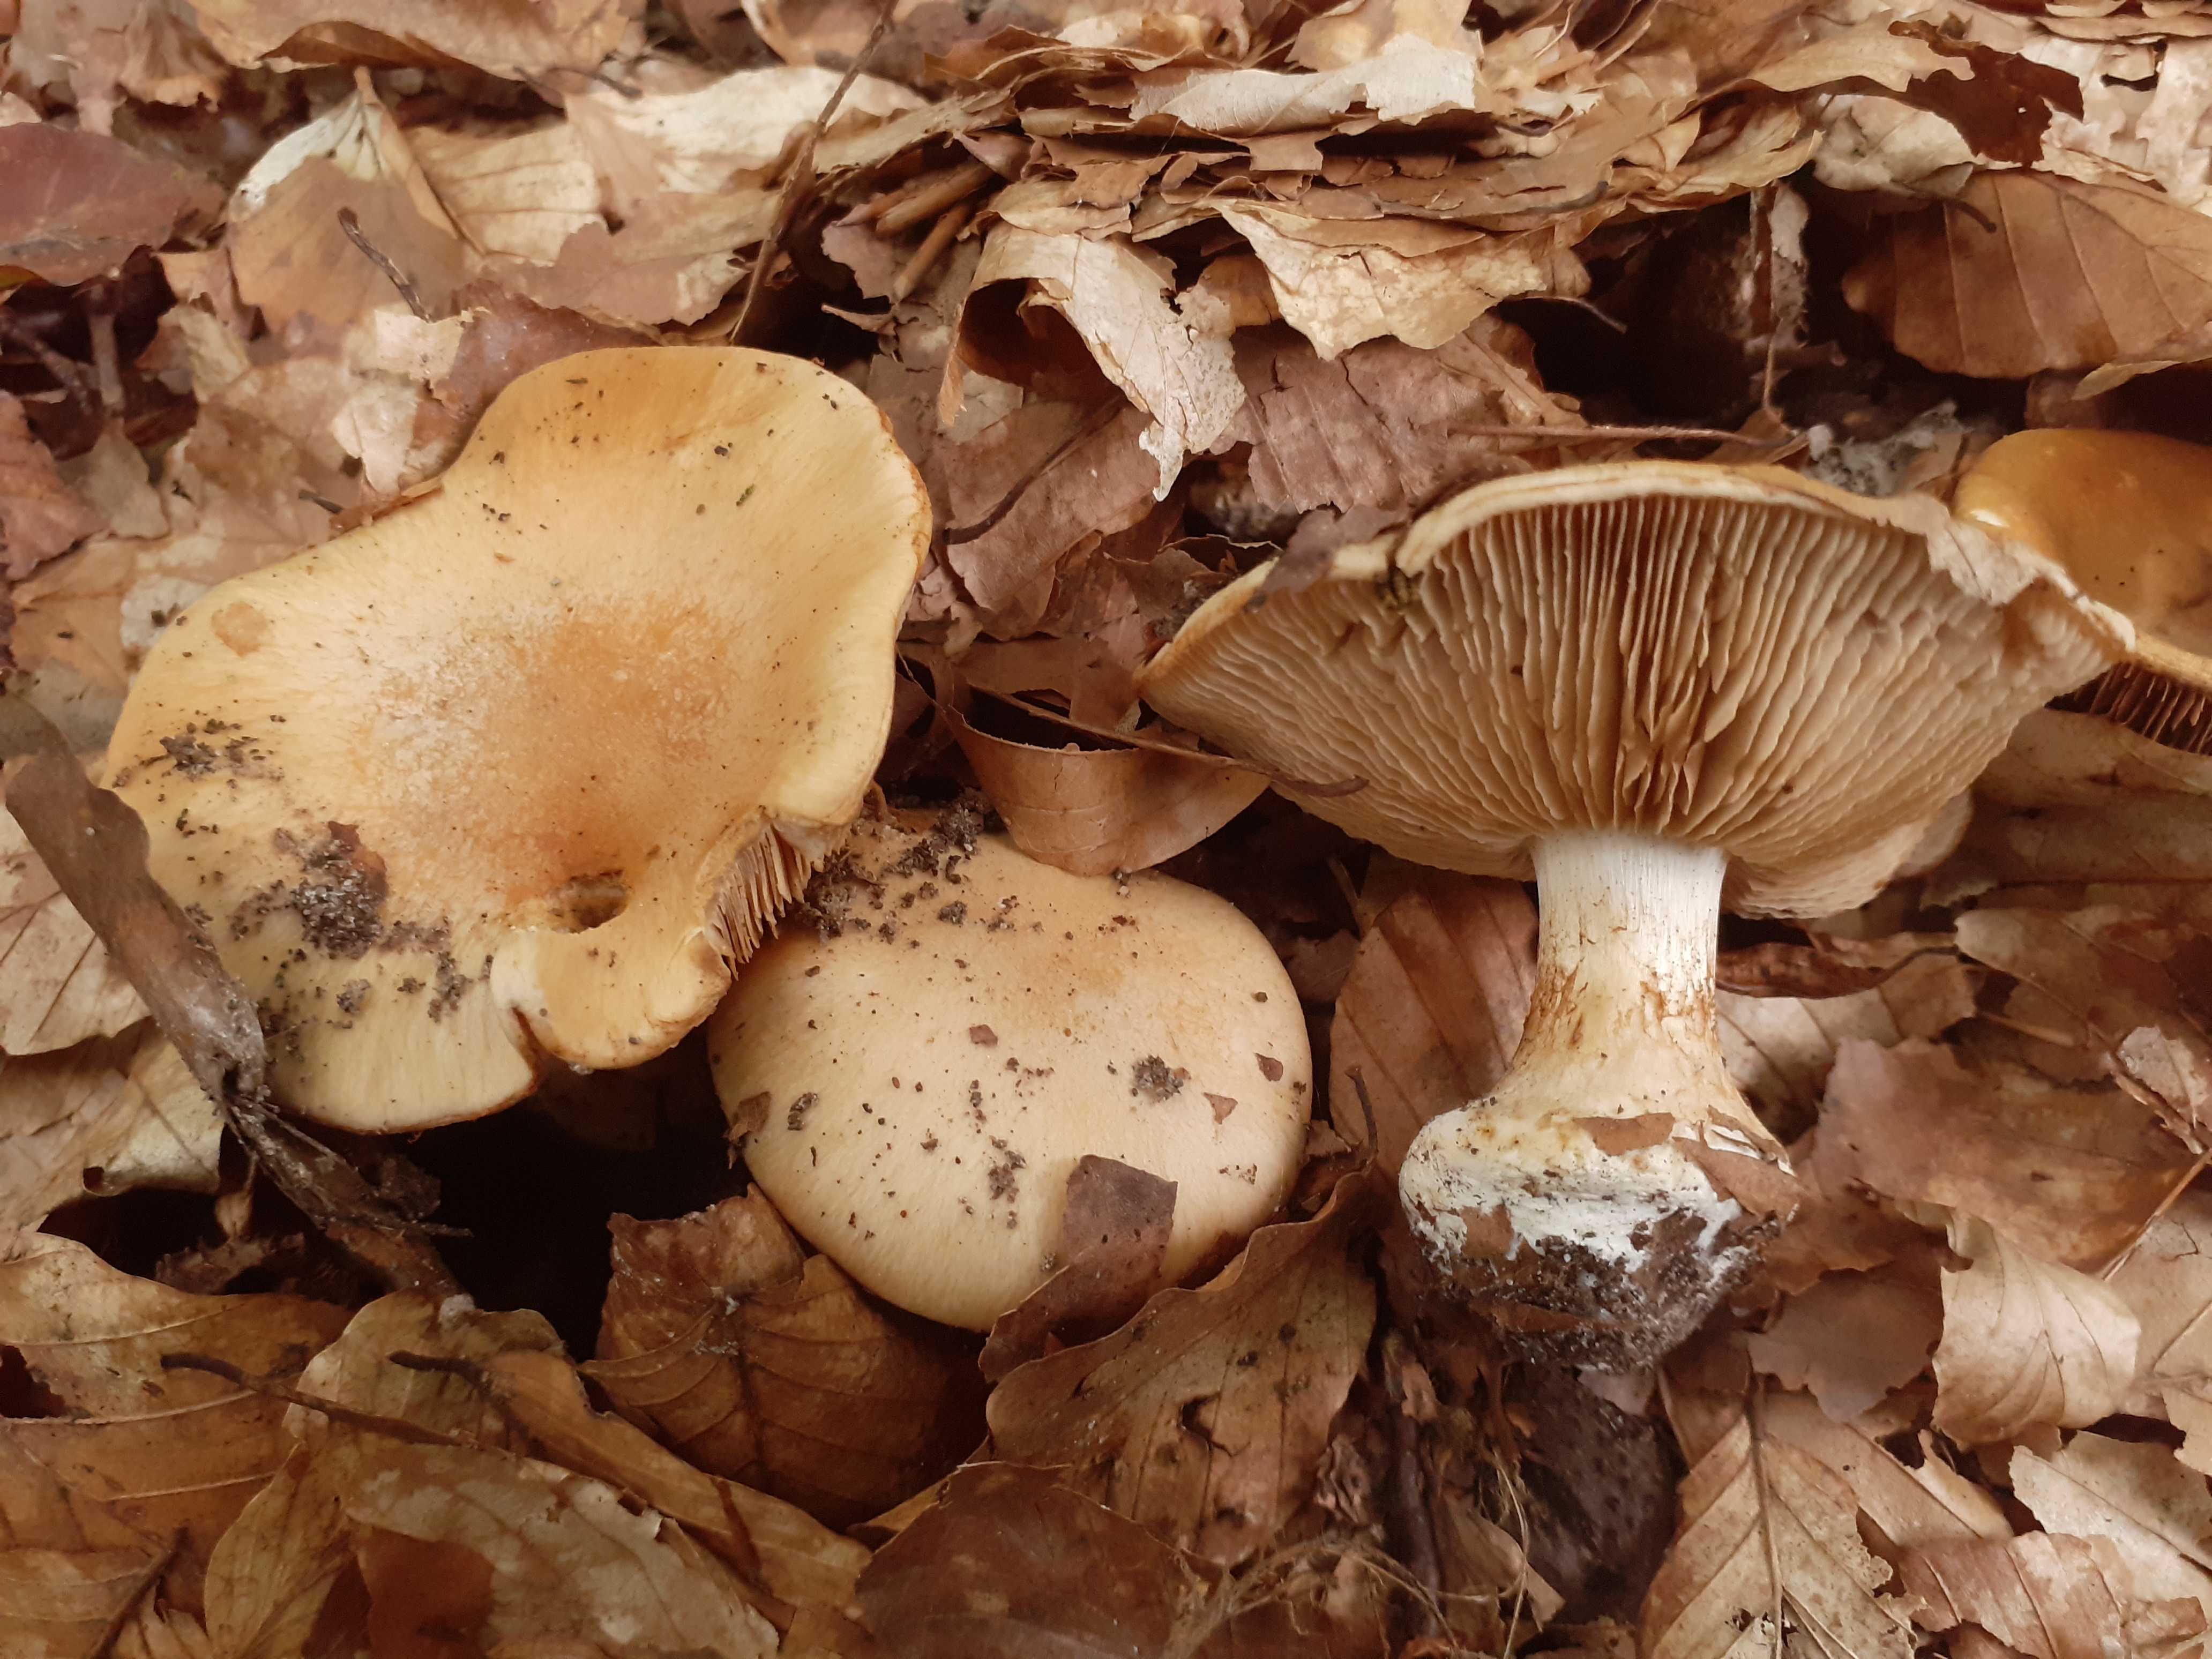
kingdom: Fungi
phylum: Basidiomycota
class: Agaricomycetes
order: Agaricales
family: Cortinariaceae
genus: Thaxterogaster
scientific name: Thaxterogaster talus
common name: knogle-slørhat
